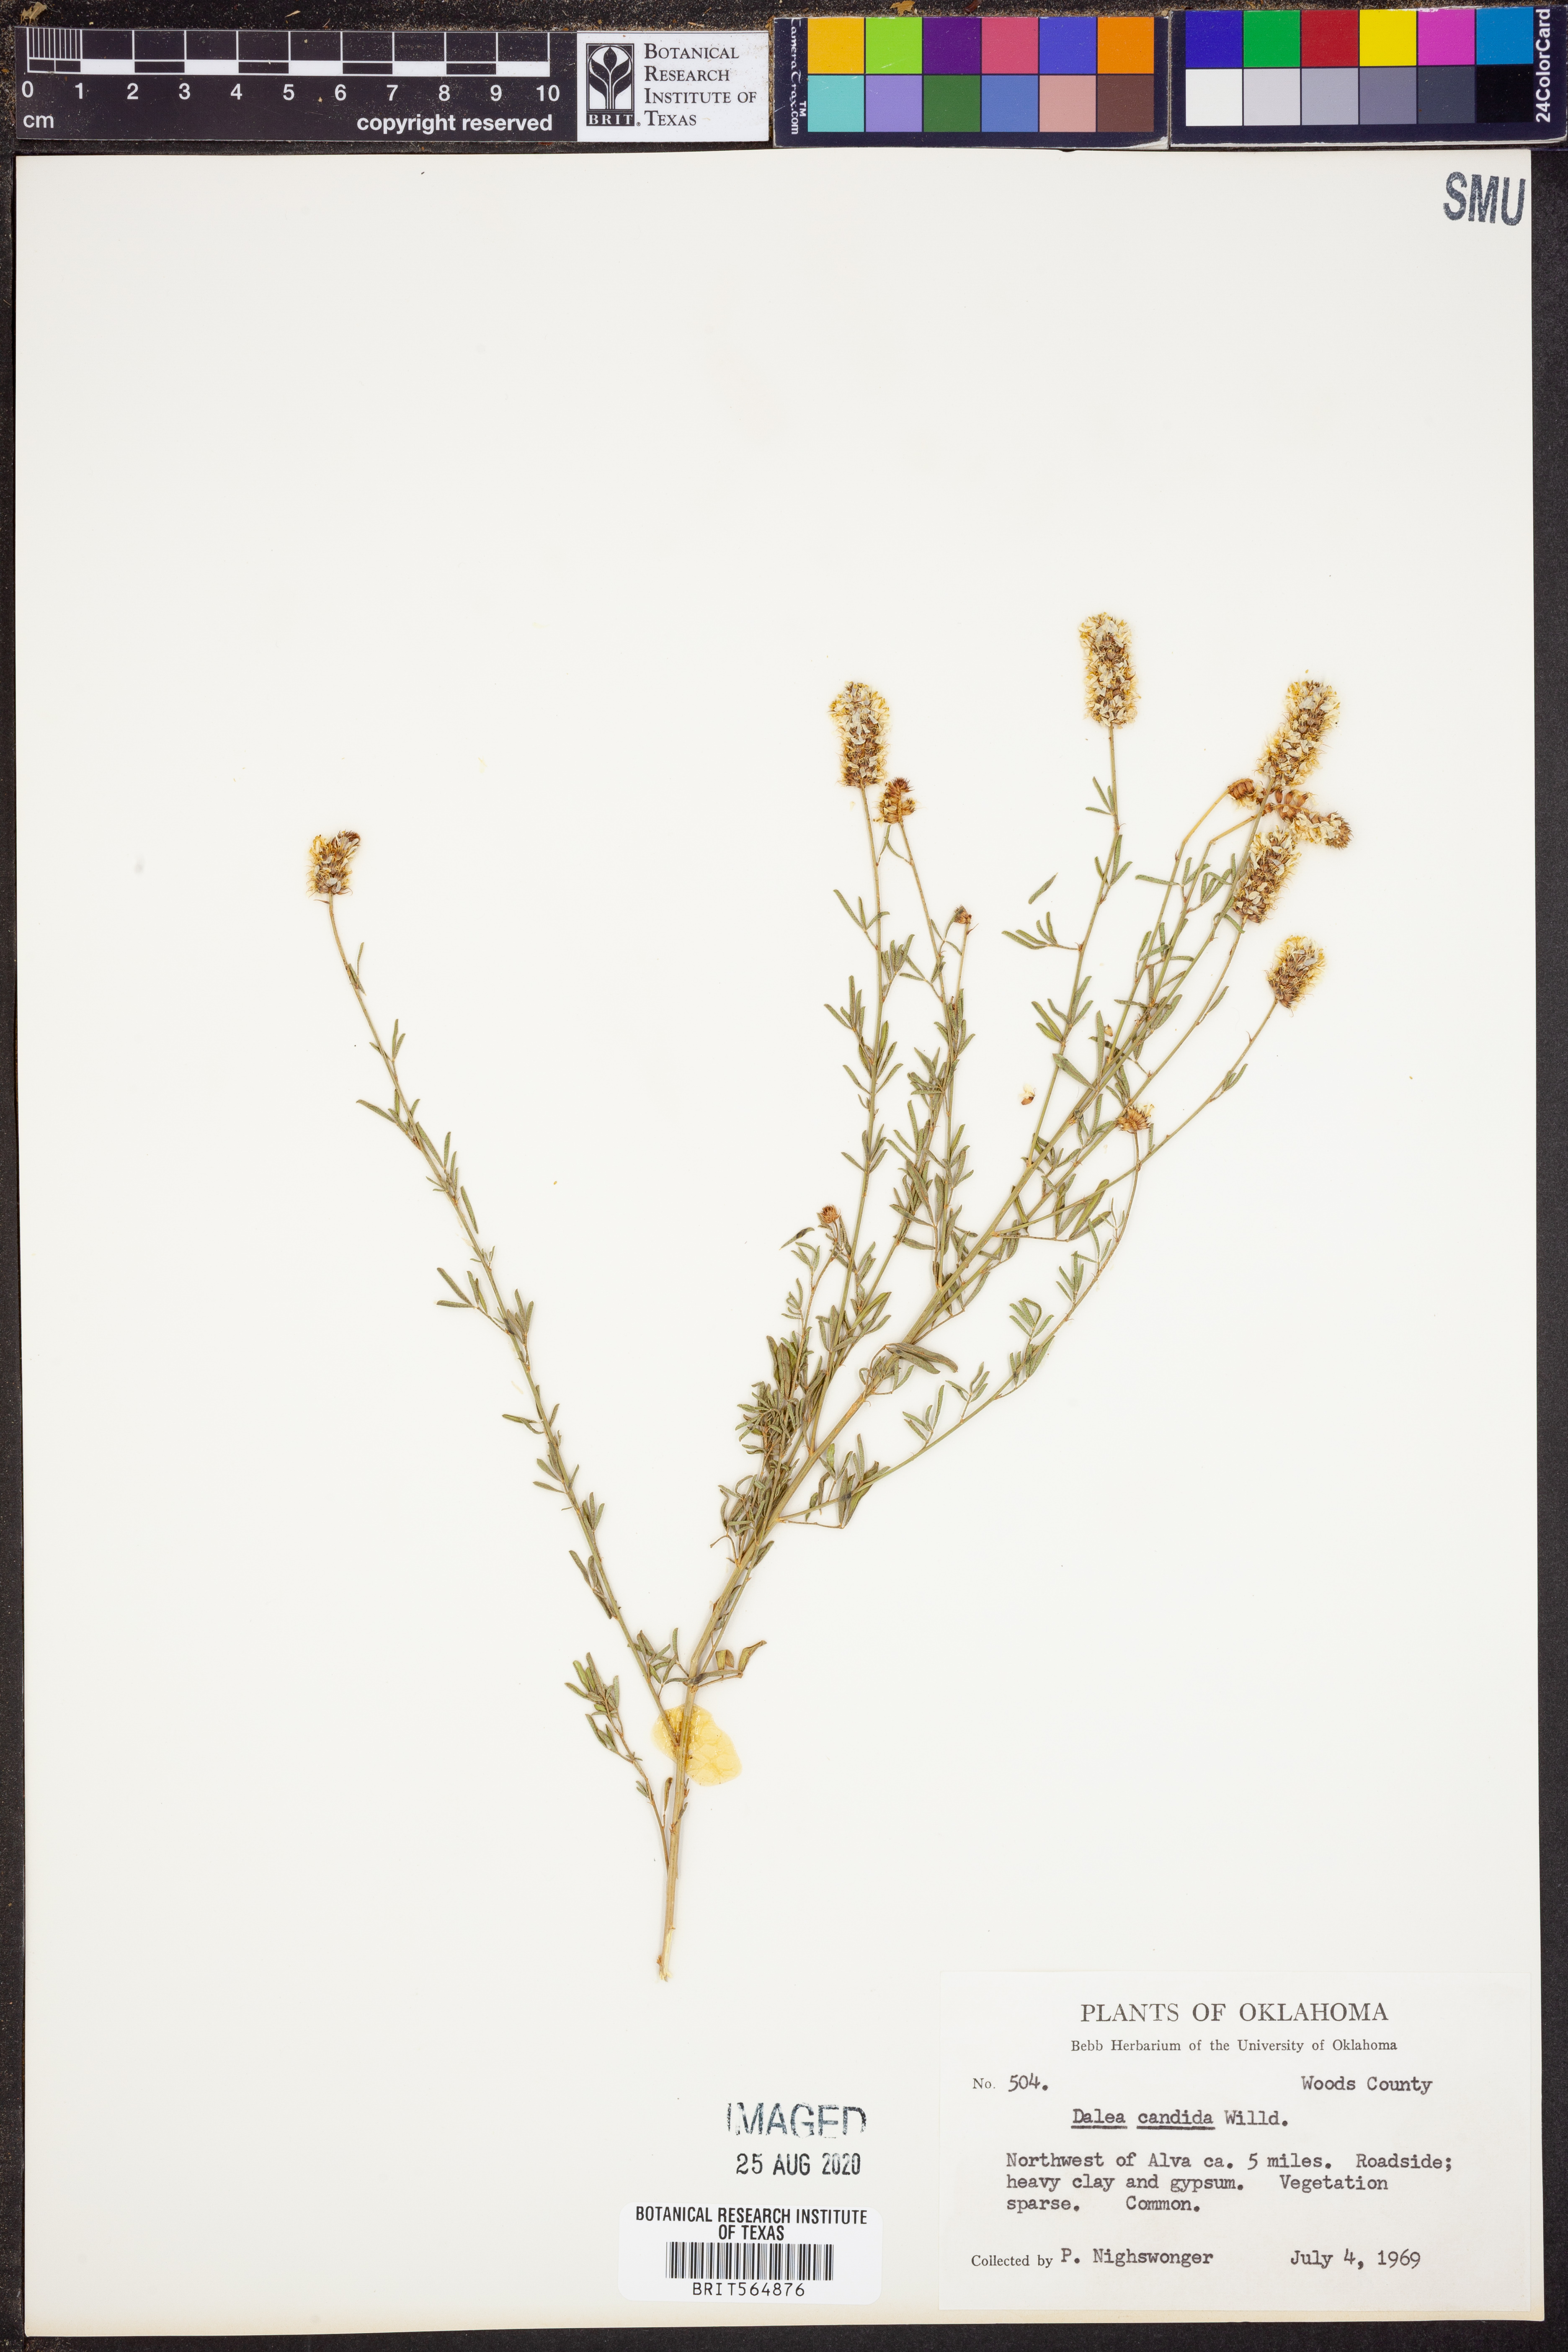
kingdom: Plantae
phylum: Tracheophyta
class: Magnoliopsida
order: Fabales
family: Fabaceae
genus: Dalea
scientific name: Dalea candida
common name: White prairie-clover
